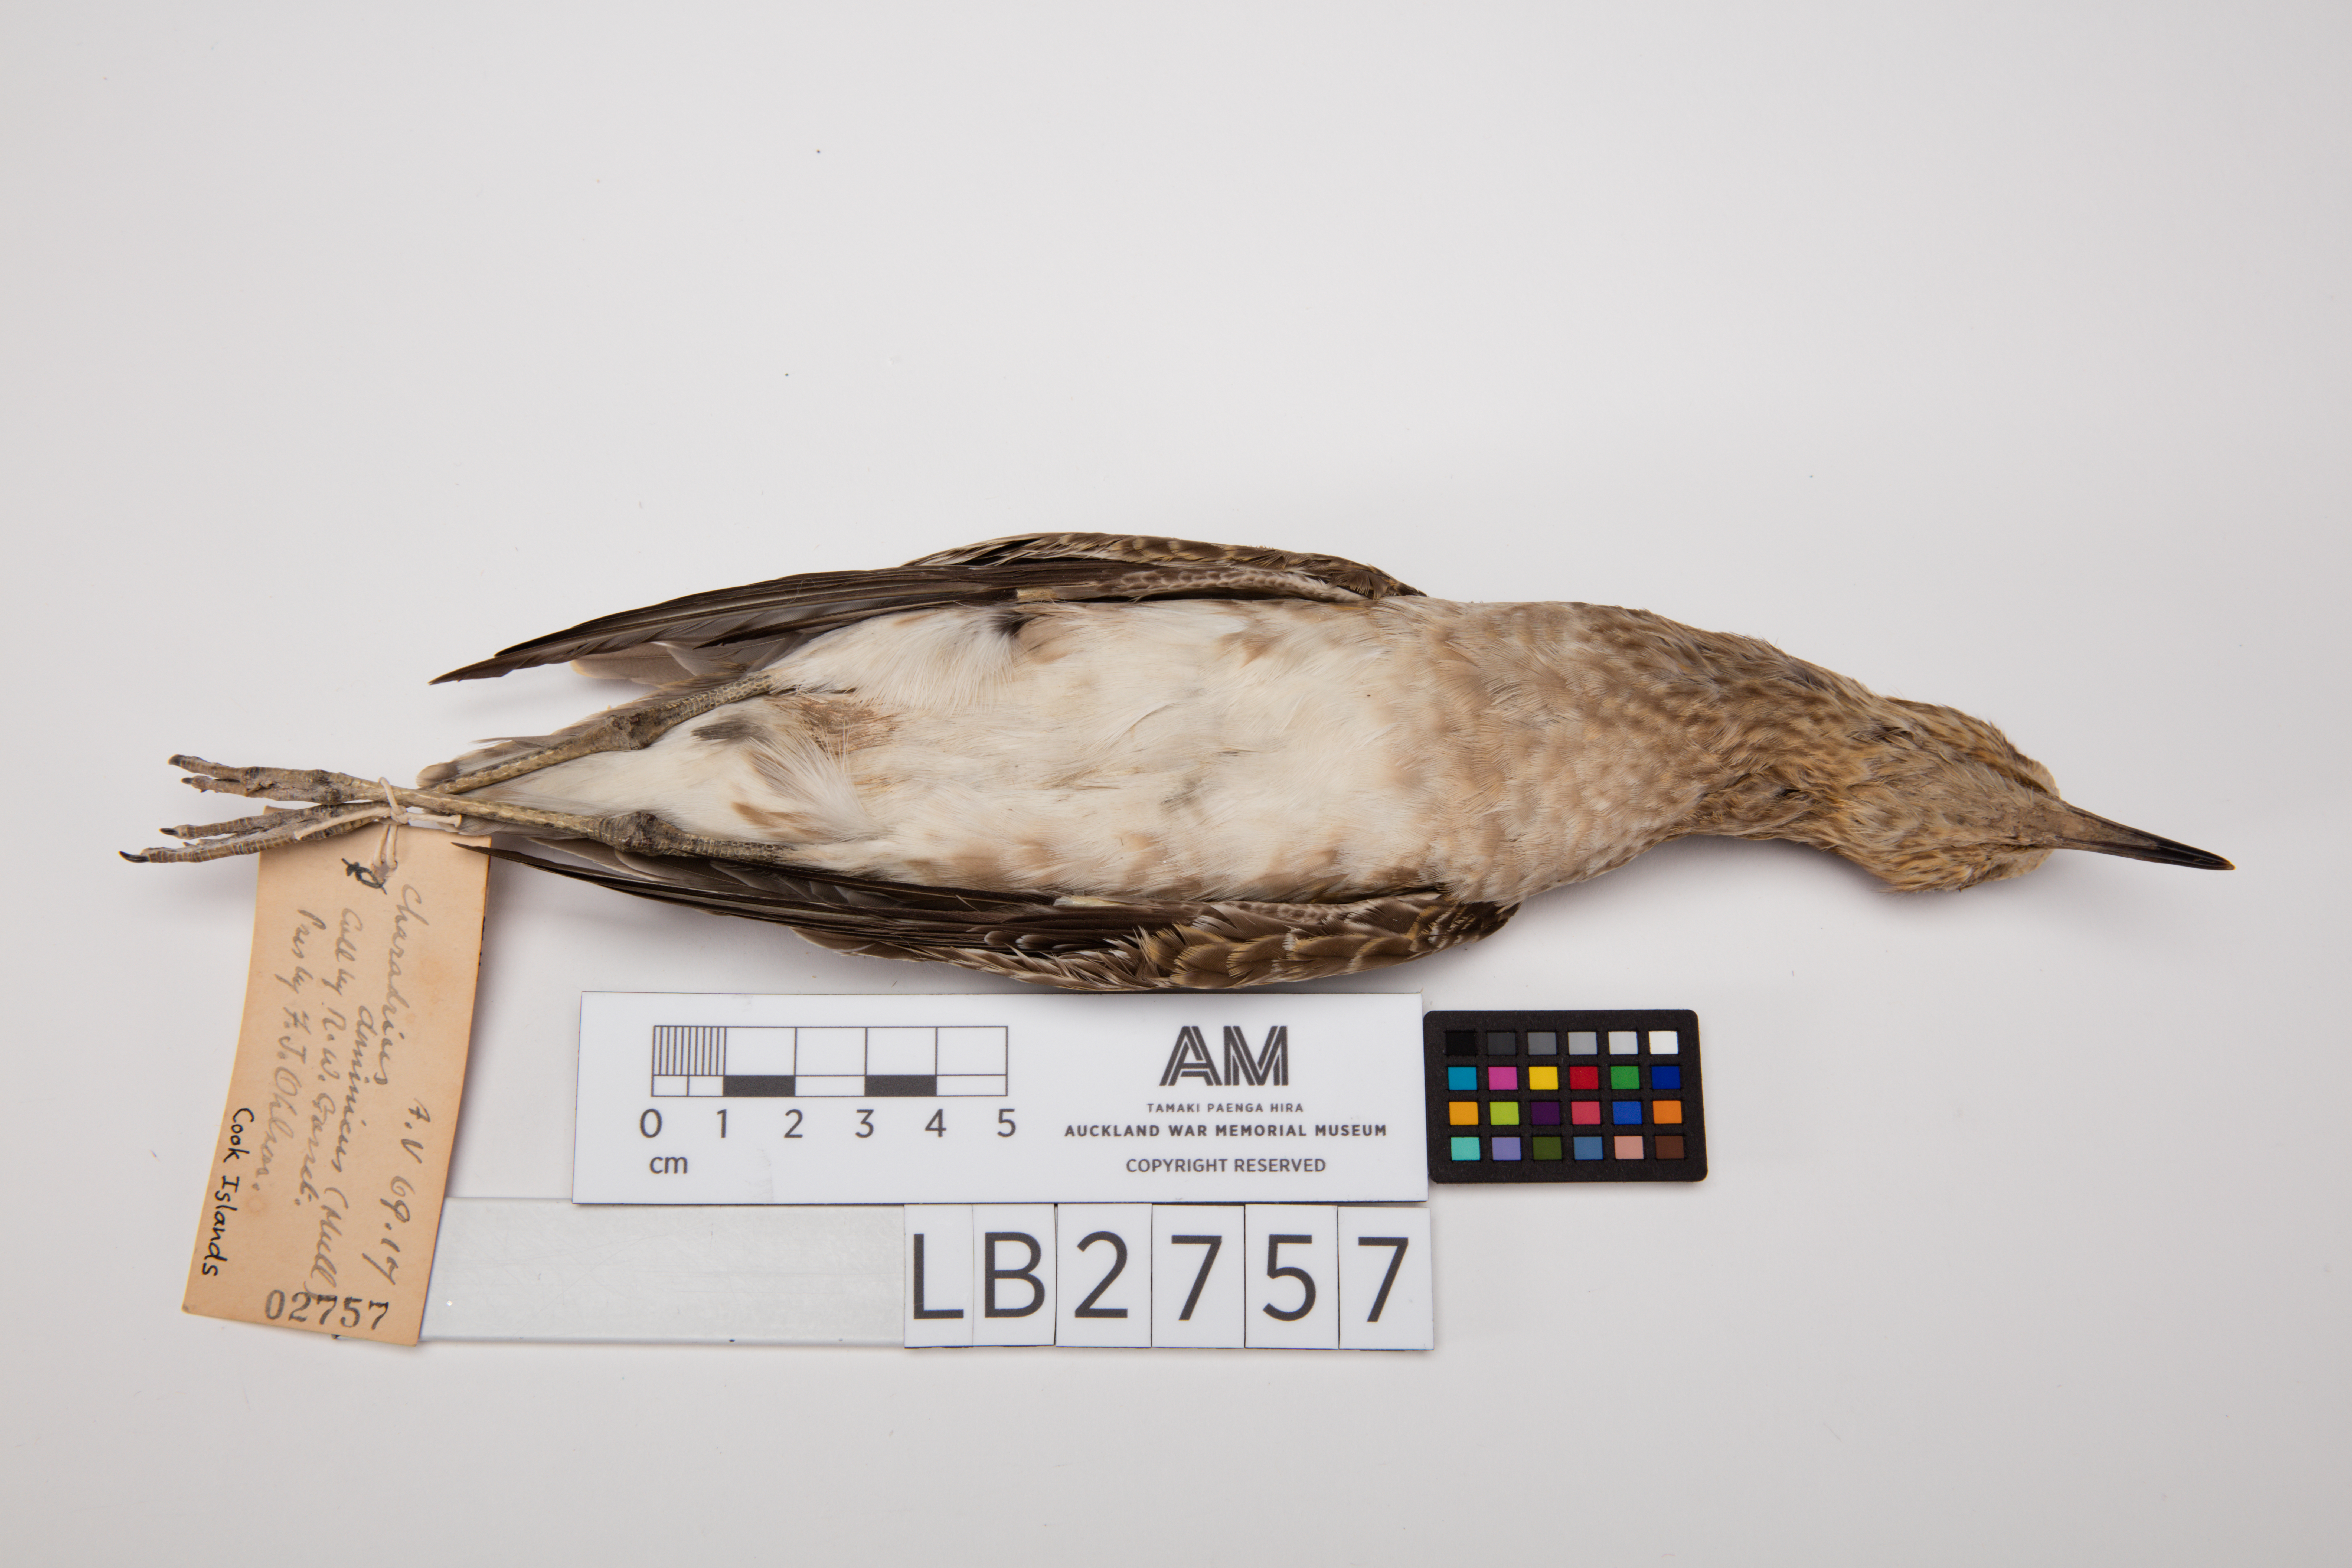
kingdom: Animalia
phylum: Chordata
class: Aves
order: Charadriiformes
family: Charadriidae
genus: Pluvialis
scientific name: Pluvialis fulva
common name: Pacific golden plover
